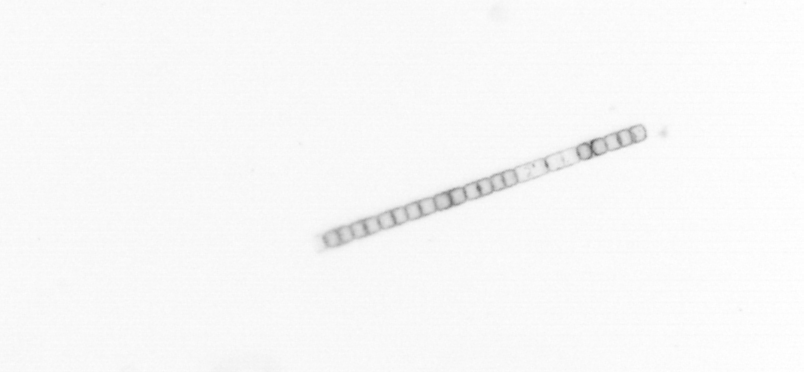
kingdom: Chromista
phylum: Ochrophyta
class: Bacillariophyceae
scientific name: Bacillariophyceae
